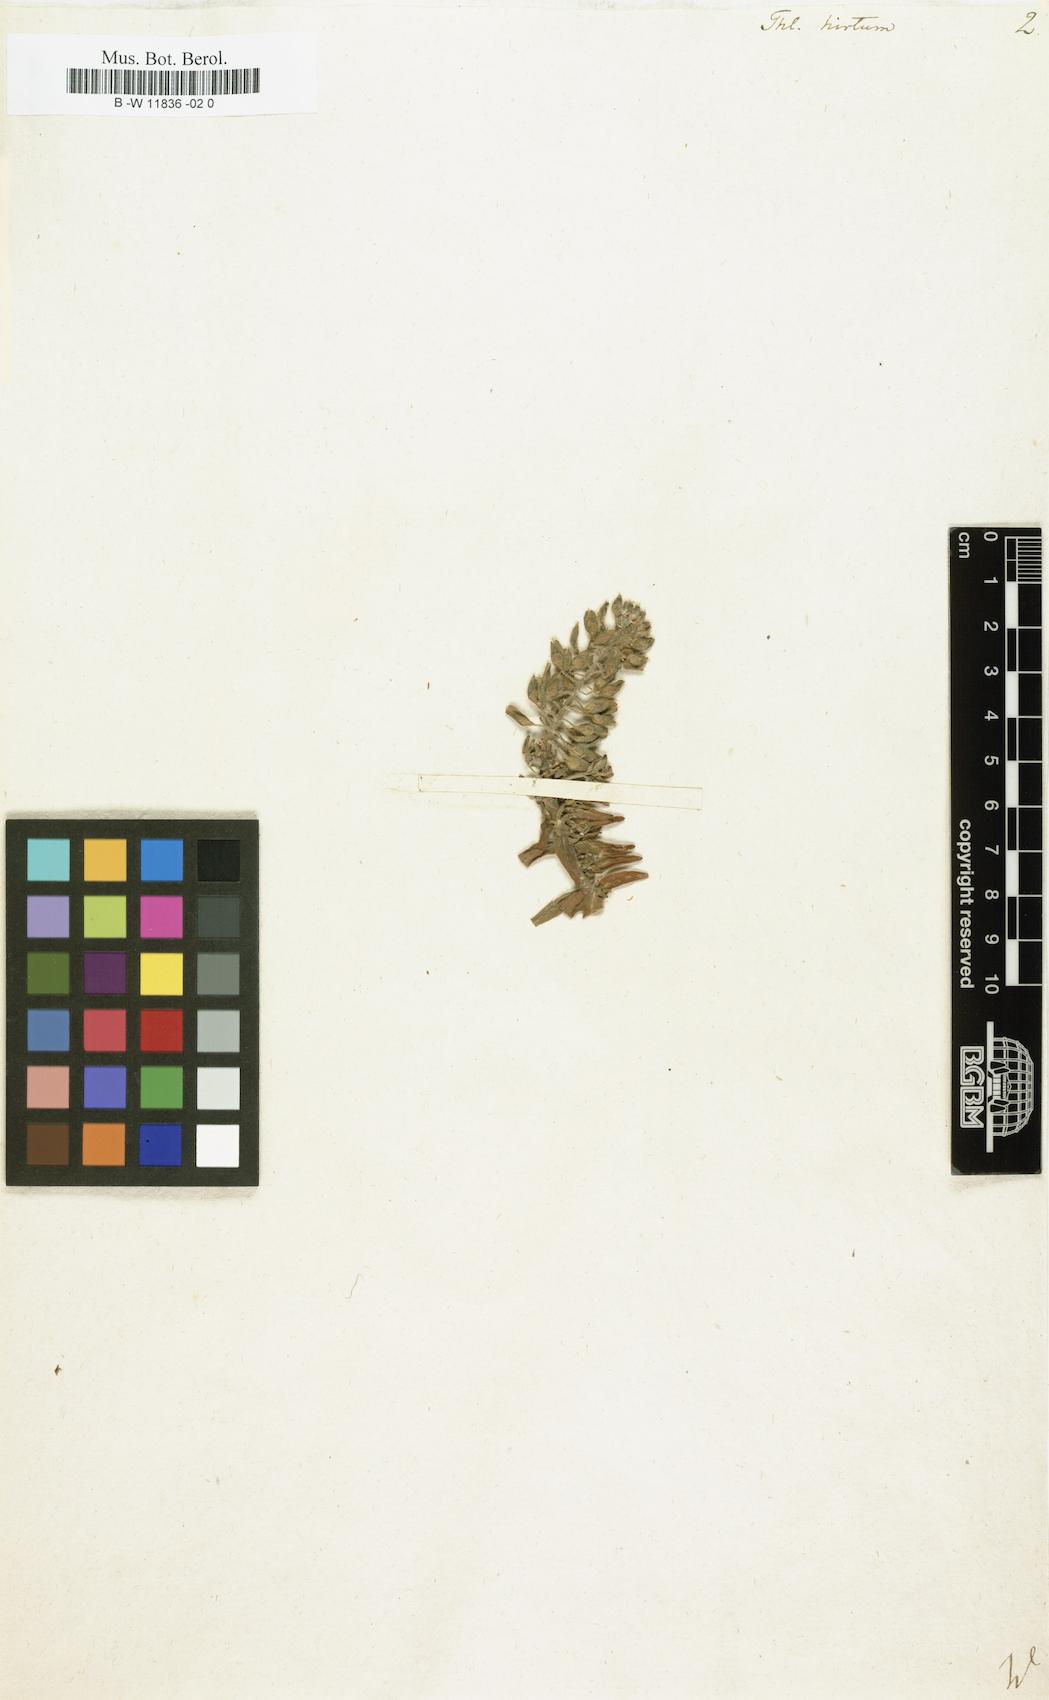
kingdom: Plantae
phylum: Tracheophyta
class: Magnoliopsida
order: Brassicales
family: Brassicaceae
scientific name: Brassicaceae
